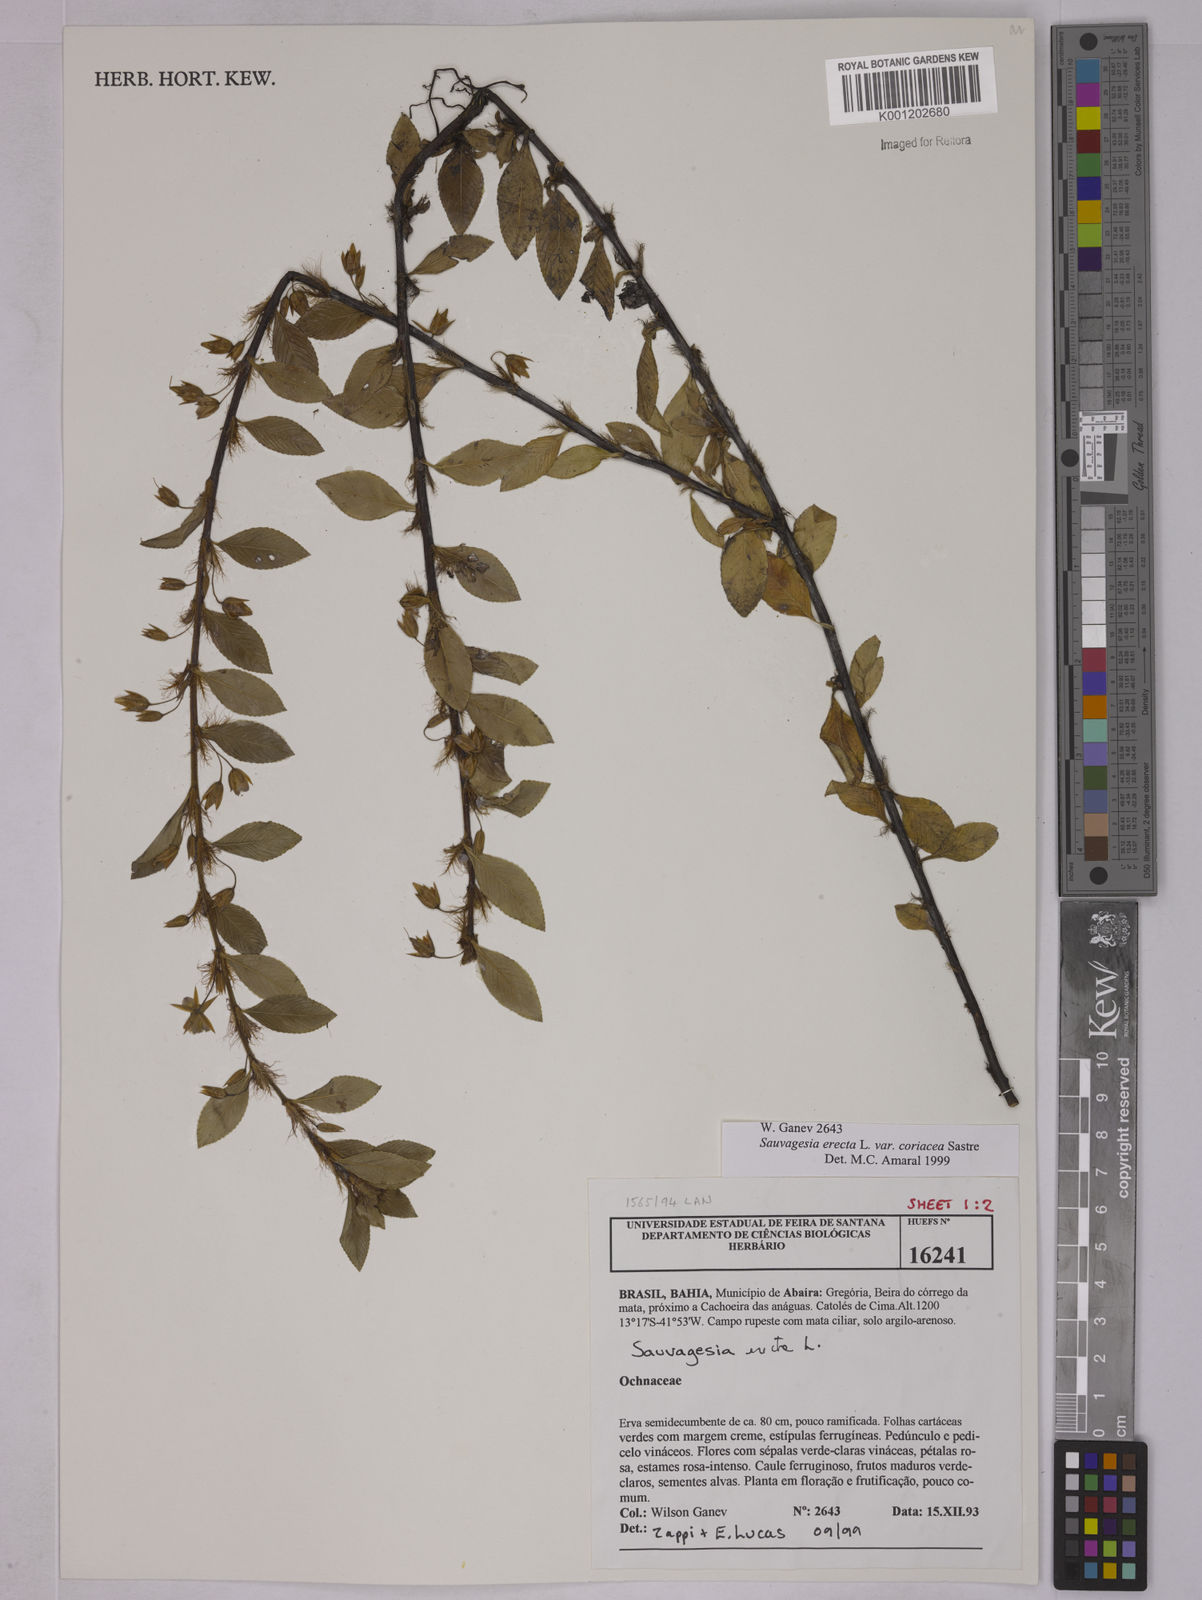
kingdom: Plantae
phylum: Tracheophyta
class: Magnoliopsida
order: Malpighiales
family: Ochnaceae
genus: Sauvagesia
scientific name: Sauvagesia erecta
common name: Creole tea
